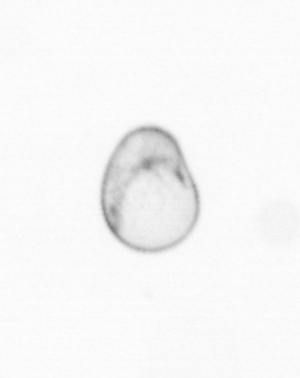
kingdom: Chromista
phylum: Myzozoa
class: Dinophyceae
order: Noctilucales
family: Noctilucaceae
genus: Noctiluca
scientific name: Noctiluca scintillans
